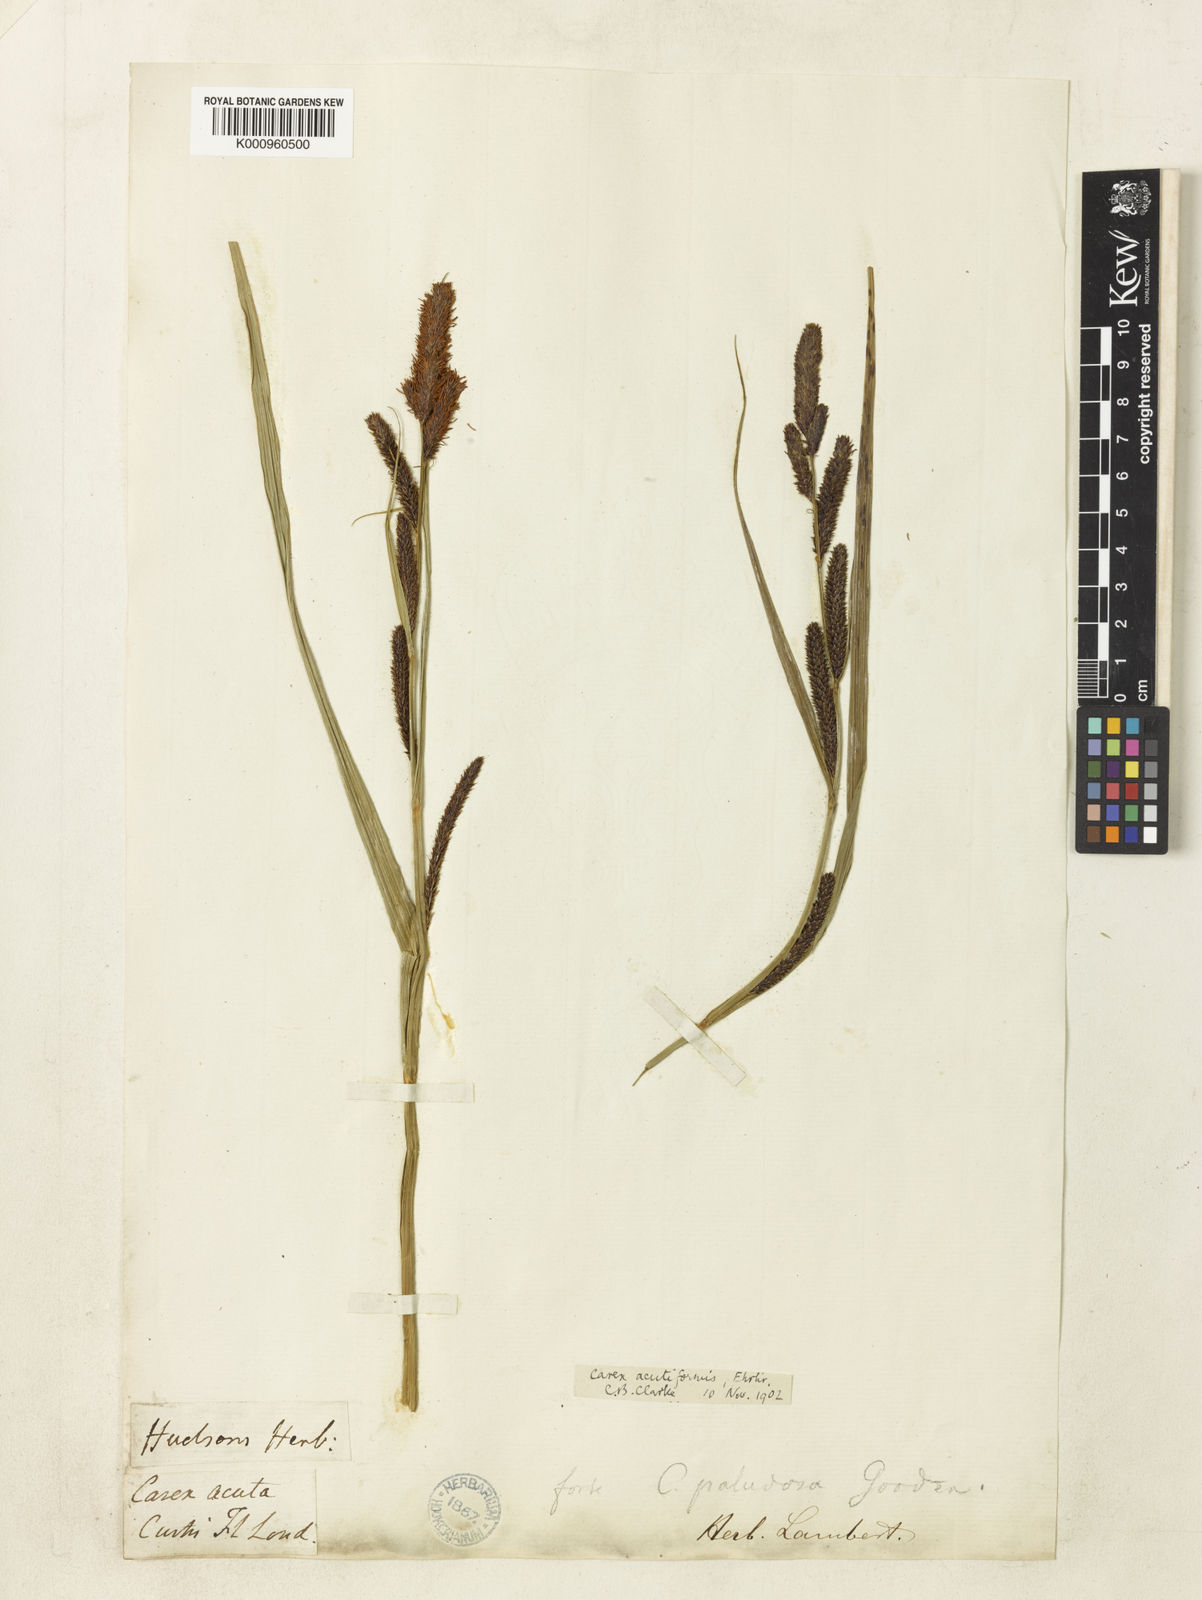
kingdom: Plantae
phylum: Tracheophyta
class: Liliopsida
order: Poales
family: Cyperaceae
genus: Carex
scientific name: Carex acutiformis
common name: Lesser pond-sedge
